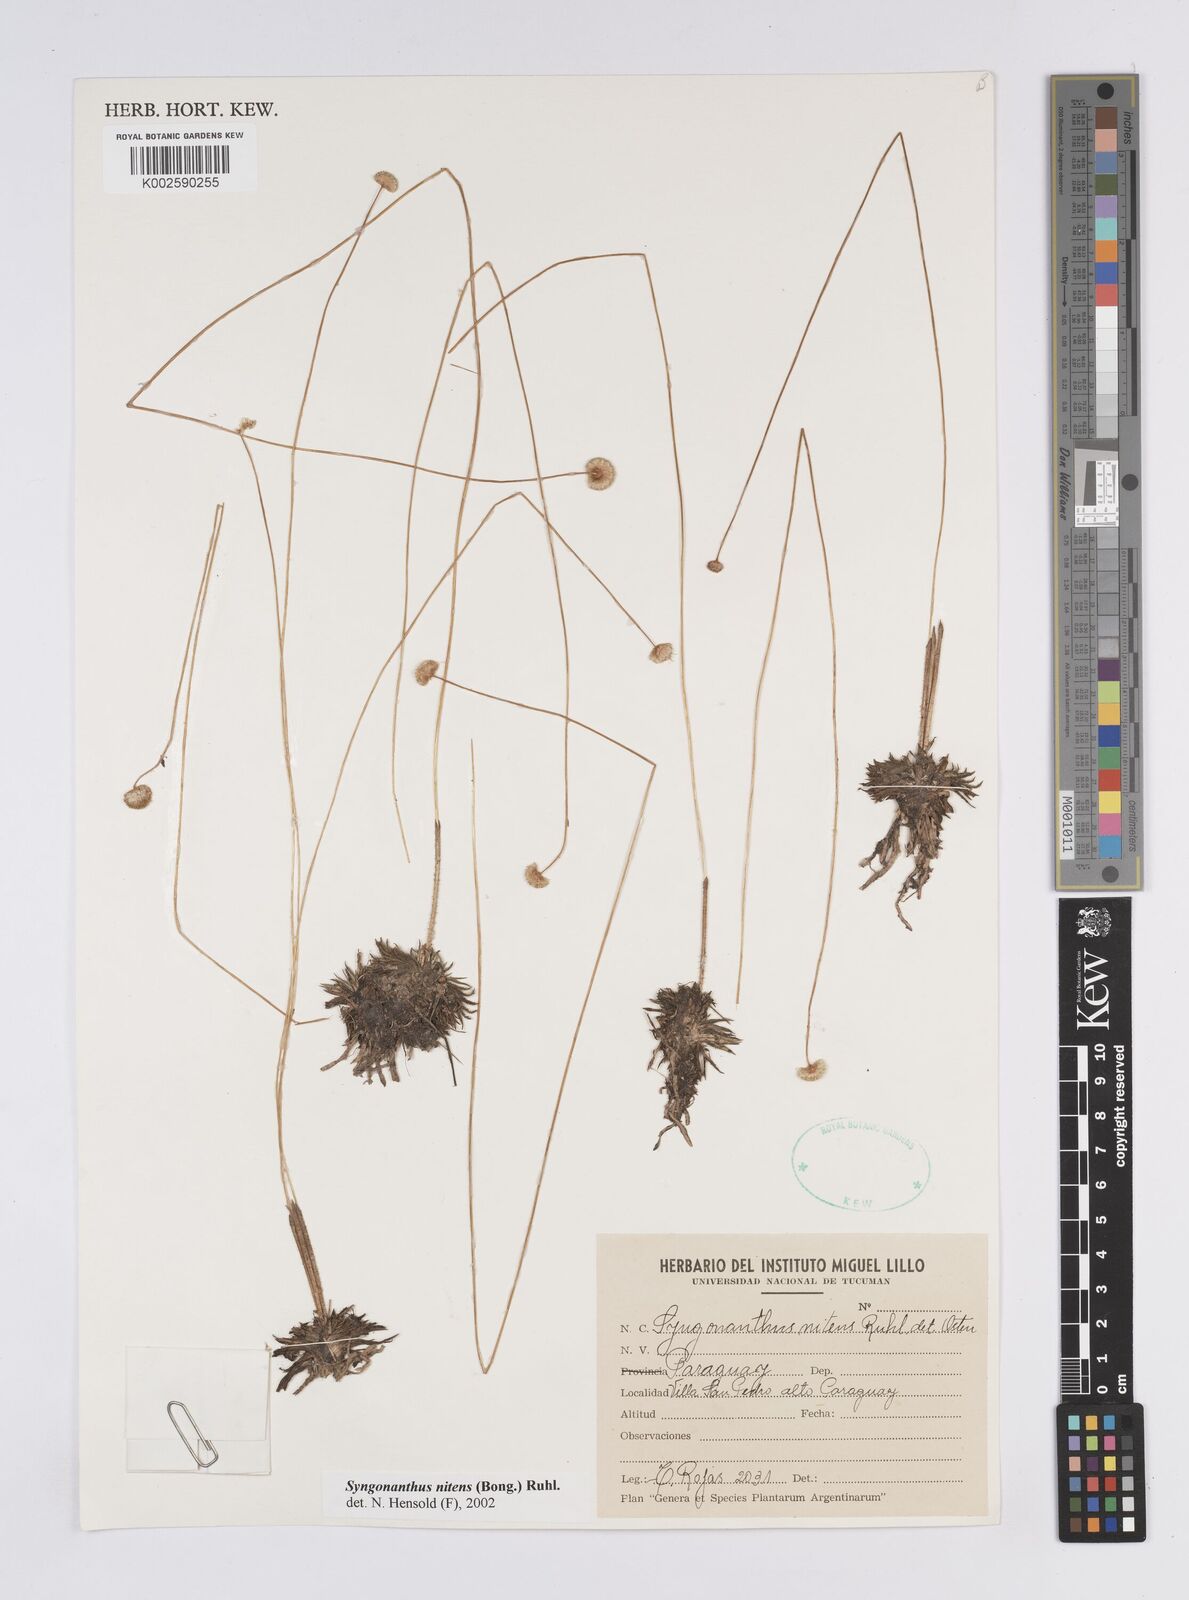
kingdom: Plantae
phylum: Tracheophyta
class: Liliopsida
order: Poales
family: Eriocaulaceae
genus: Syngonanthus
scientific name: Syngonanthus nitens
